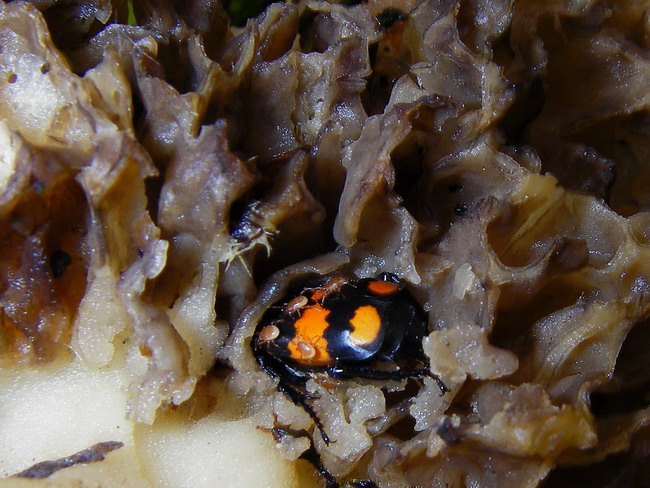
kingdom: Fungi
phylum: Ascomycota
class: Pezizomycetes
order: Pezizales
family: Morchellaceae
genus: Morchella
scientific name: Morchella esculenta
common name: spiselig morkel
